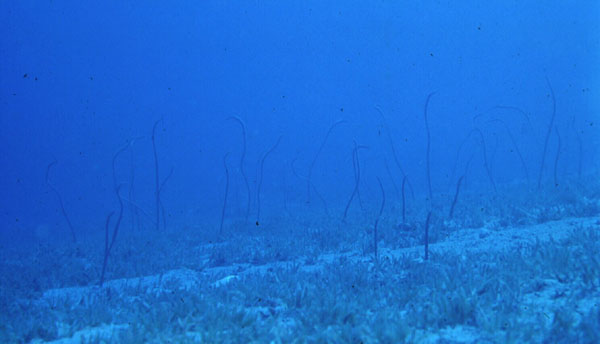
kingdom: Animalia
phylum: Chordata
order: Anguilliformes
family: Congridae
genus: Gorgasia
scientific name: Gorgasia sillneri
